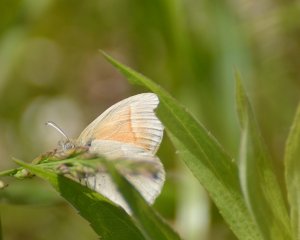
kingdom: Animalia
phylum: Arthropoda
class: Insecta
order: Lepidoptera
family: Nymphalidae
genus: Coenonympha
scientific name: Coenonympha tullia
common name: Large Heath
